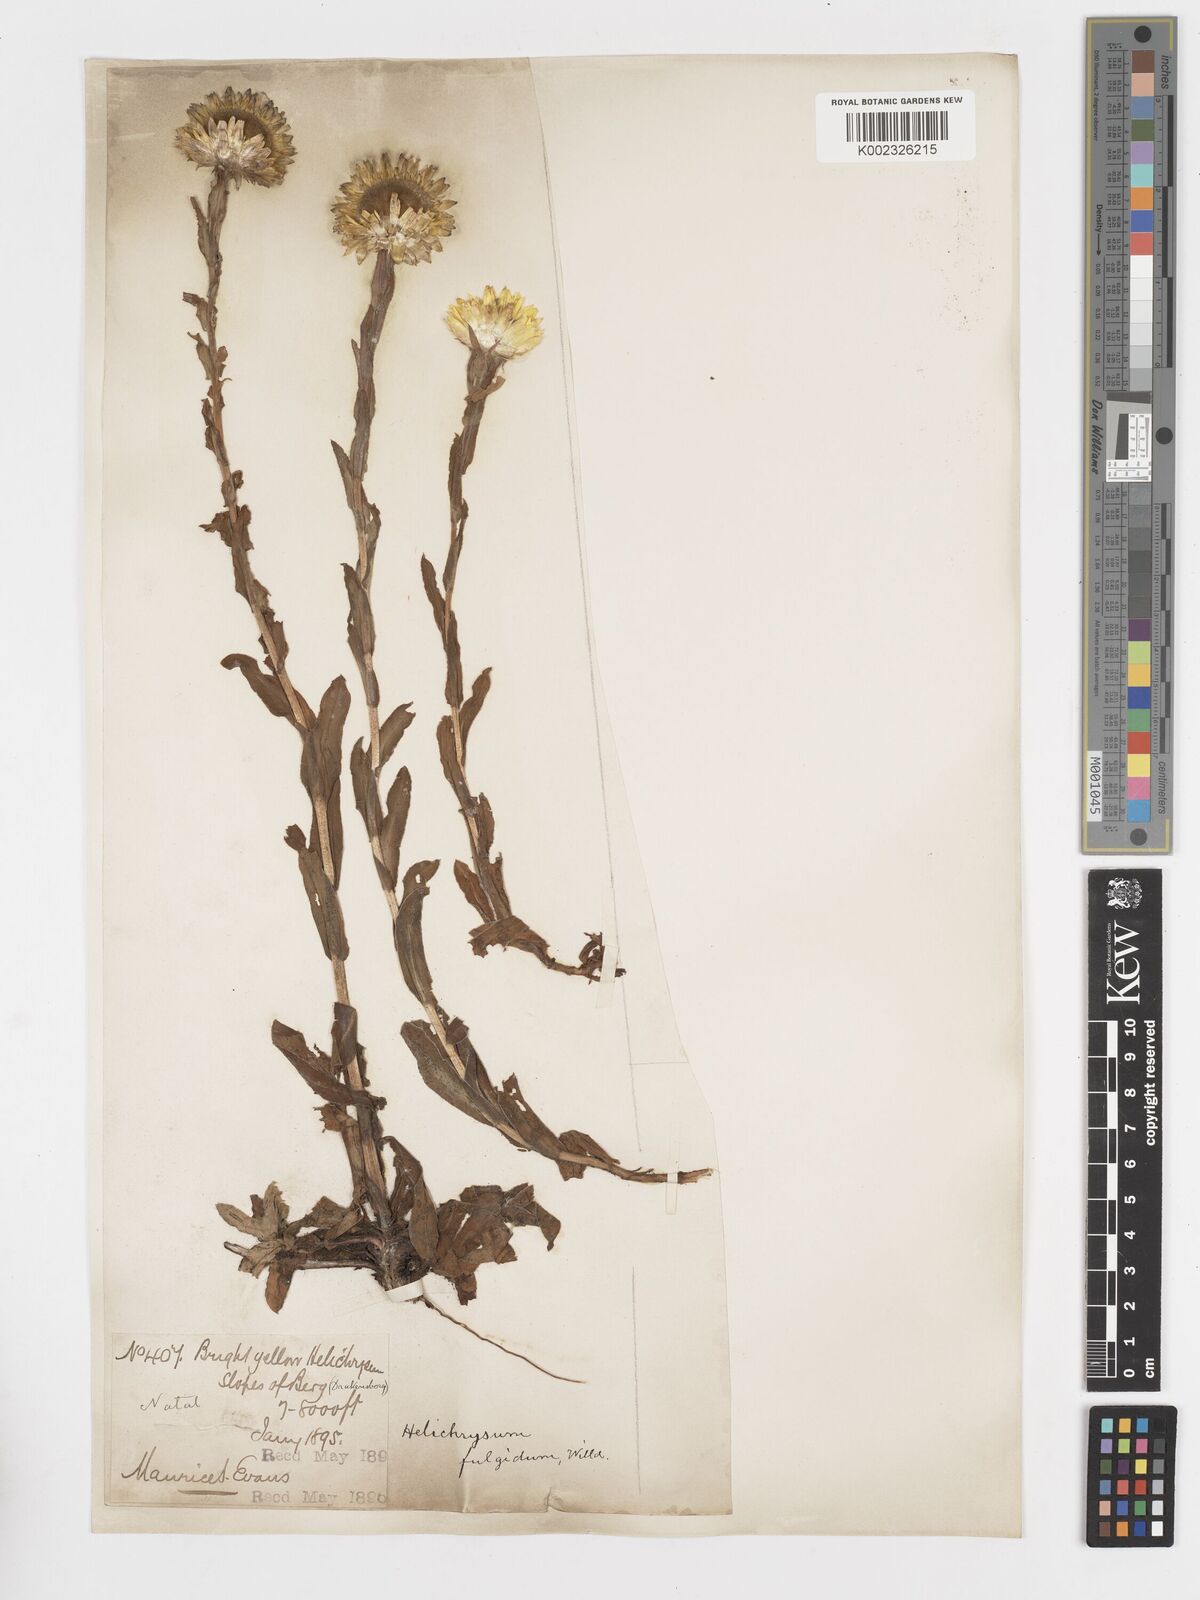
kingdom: Plantae
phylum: Tracheophyta
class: Magnoliopsida
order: Asterales
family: Asteraceae
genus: Helichrysum
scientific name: Helichrysum aureum
